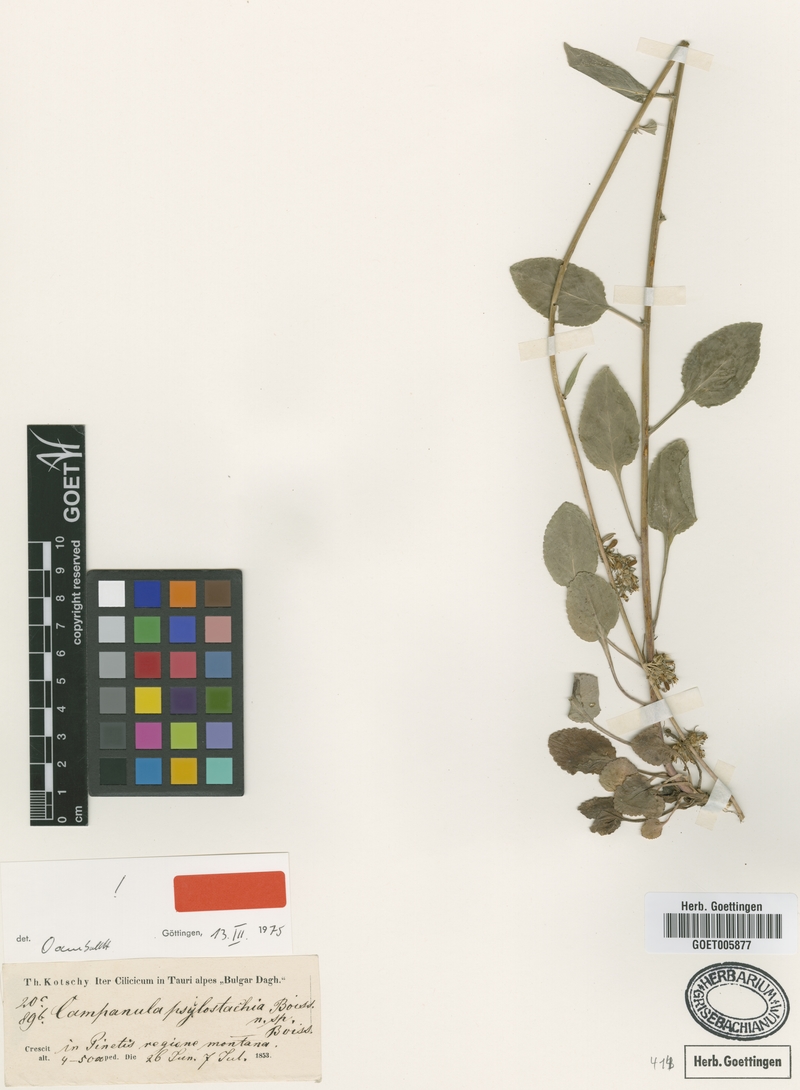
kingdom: Plantae
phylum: Tracheophyta
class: Magnoliopsida
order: Asterales
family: Campanulaceae
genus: Campanula
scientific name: Campanula psilostachya
